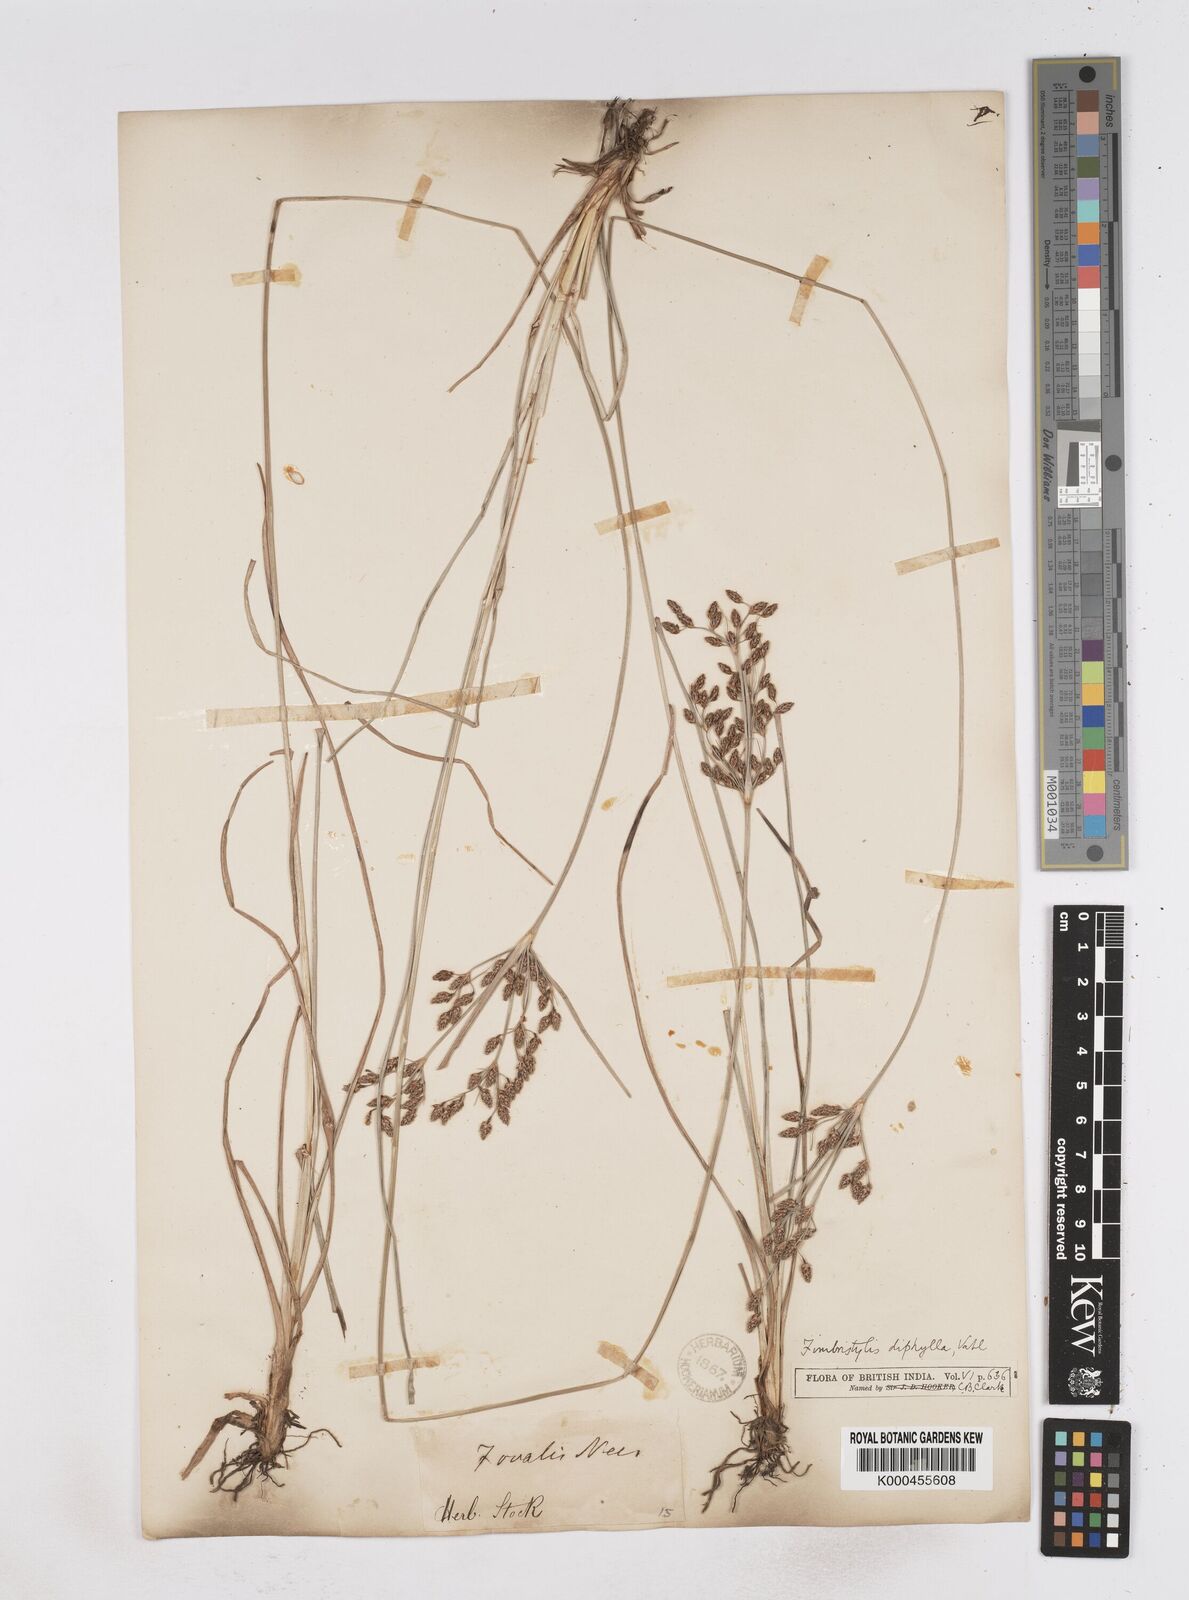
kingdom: Plantae
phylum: Tracheophyta
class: Liliopsida
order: Poales
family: Cyperaceae
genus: Fimbristylis
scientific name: Fimbristylis dichotoma
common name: Forked fimbry
